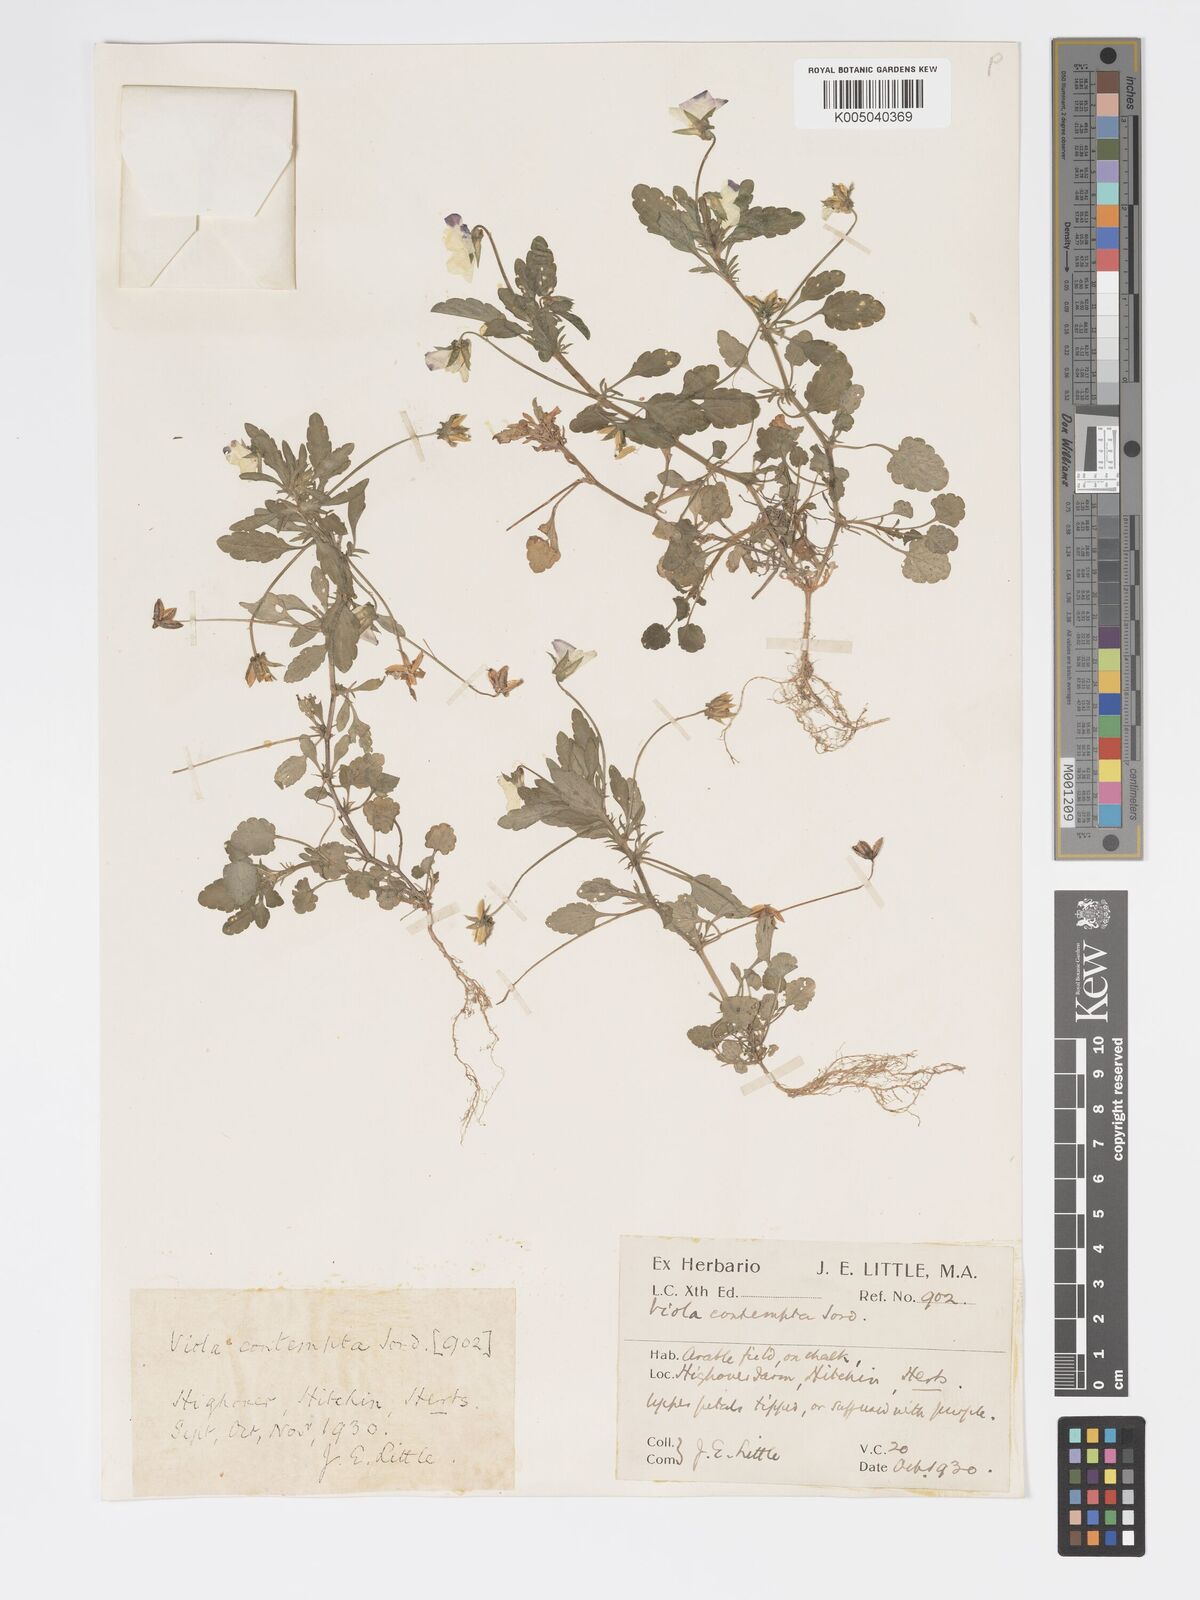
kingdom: Plantae
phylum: Tracheophyta
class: Magnoliopsida
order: Malpighiales
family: Violaceae
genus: Viola
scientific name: Viola arvensis
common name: Field pansy
